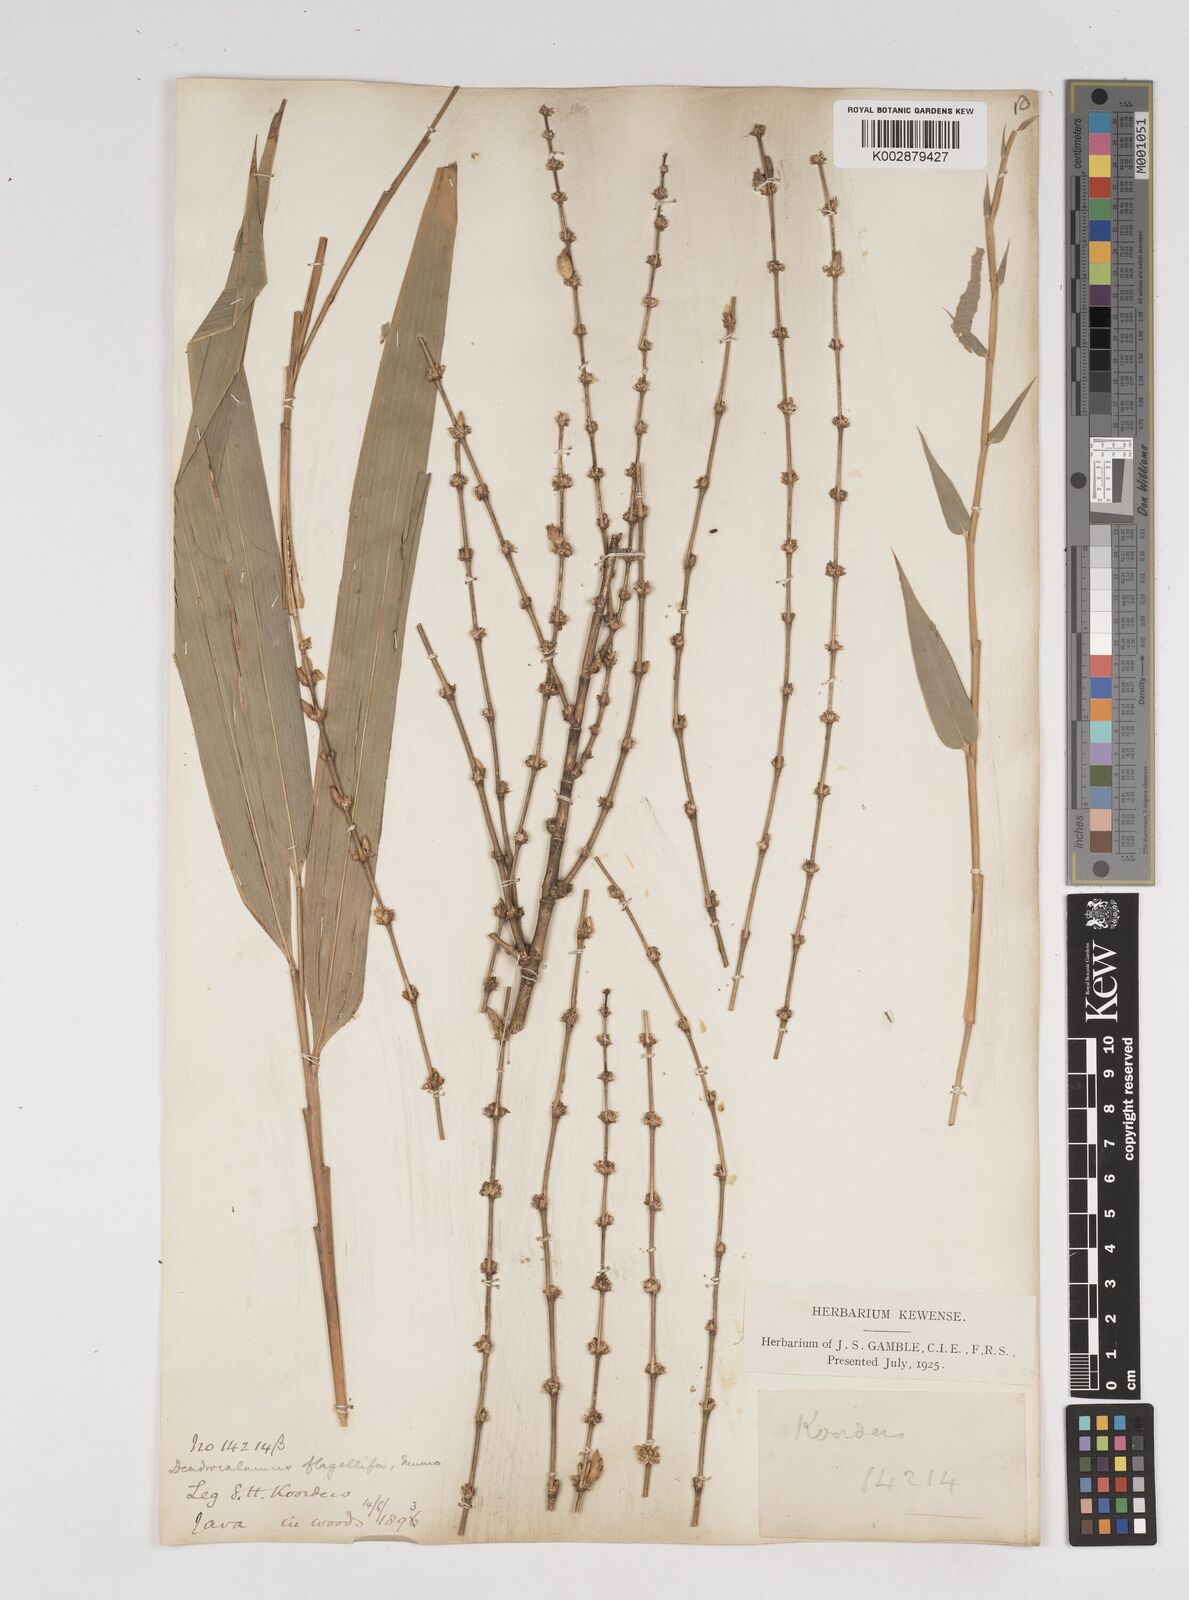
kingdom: Plantae
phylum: Tracheophyta
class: Liliopsida
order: Poales
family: Poaceae
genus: Dendrocalamus
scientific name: Dendrocalamus asper
